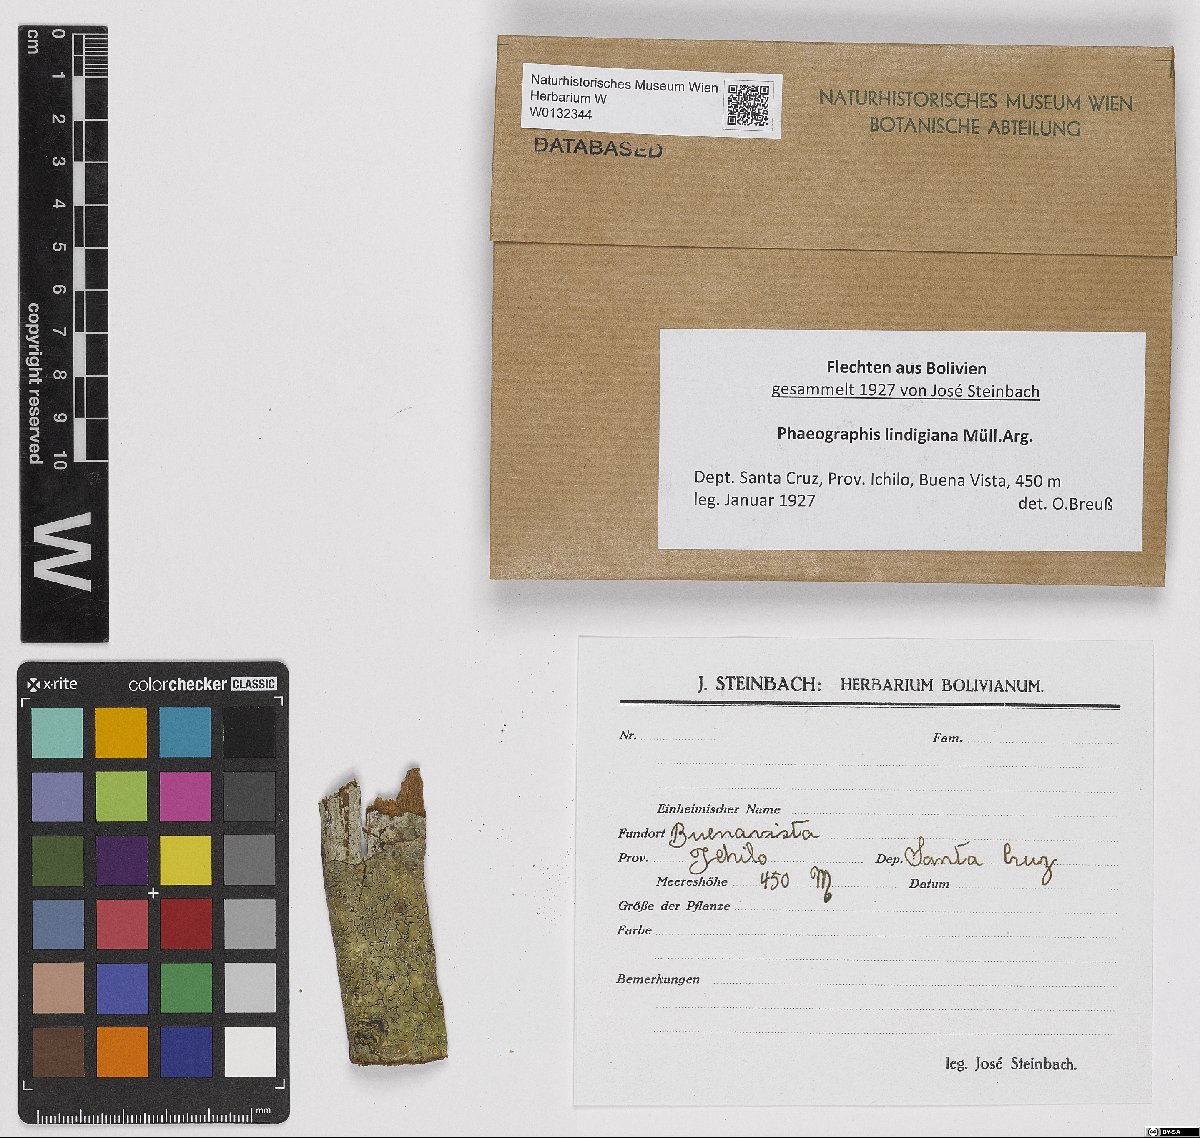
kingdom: Fungi
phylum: Ascomycota
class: Lecanoromycetes
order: Ostropales
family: Graphidaceae
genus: Phaeographis
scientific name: Phaeographis lindigiana
